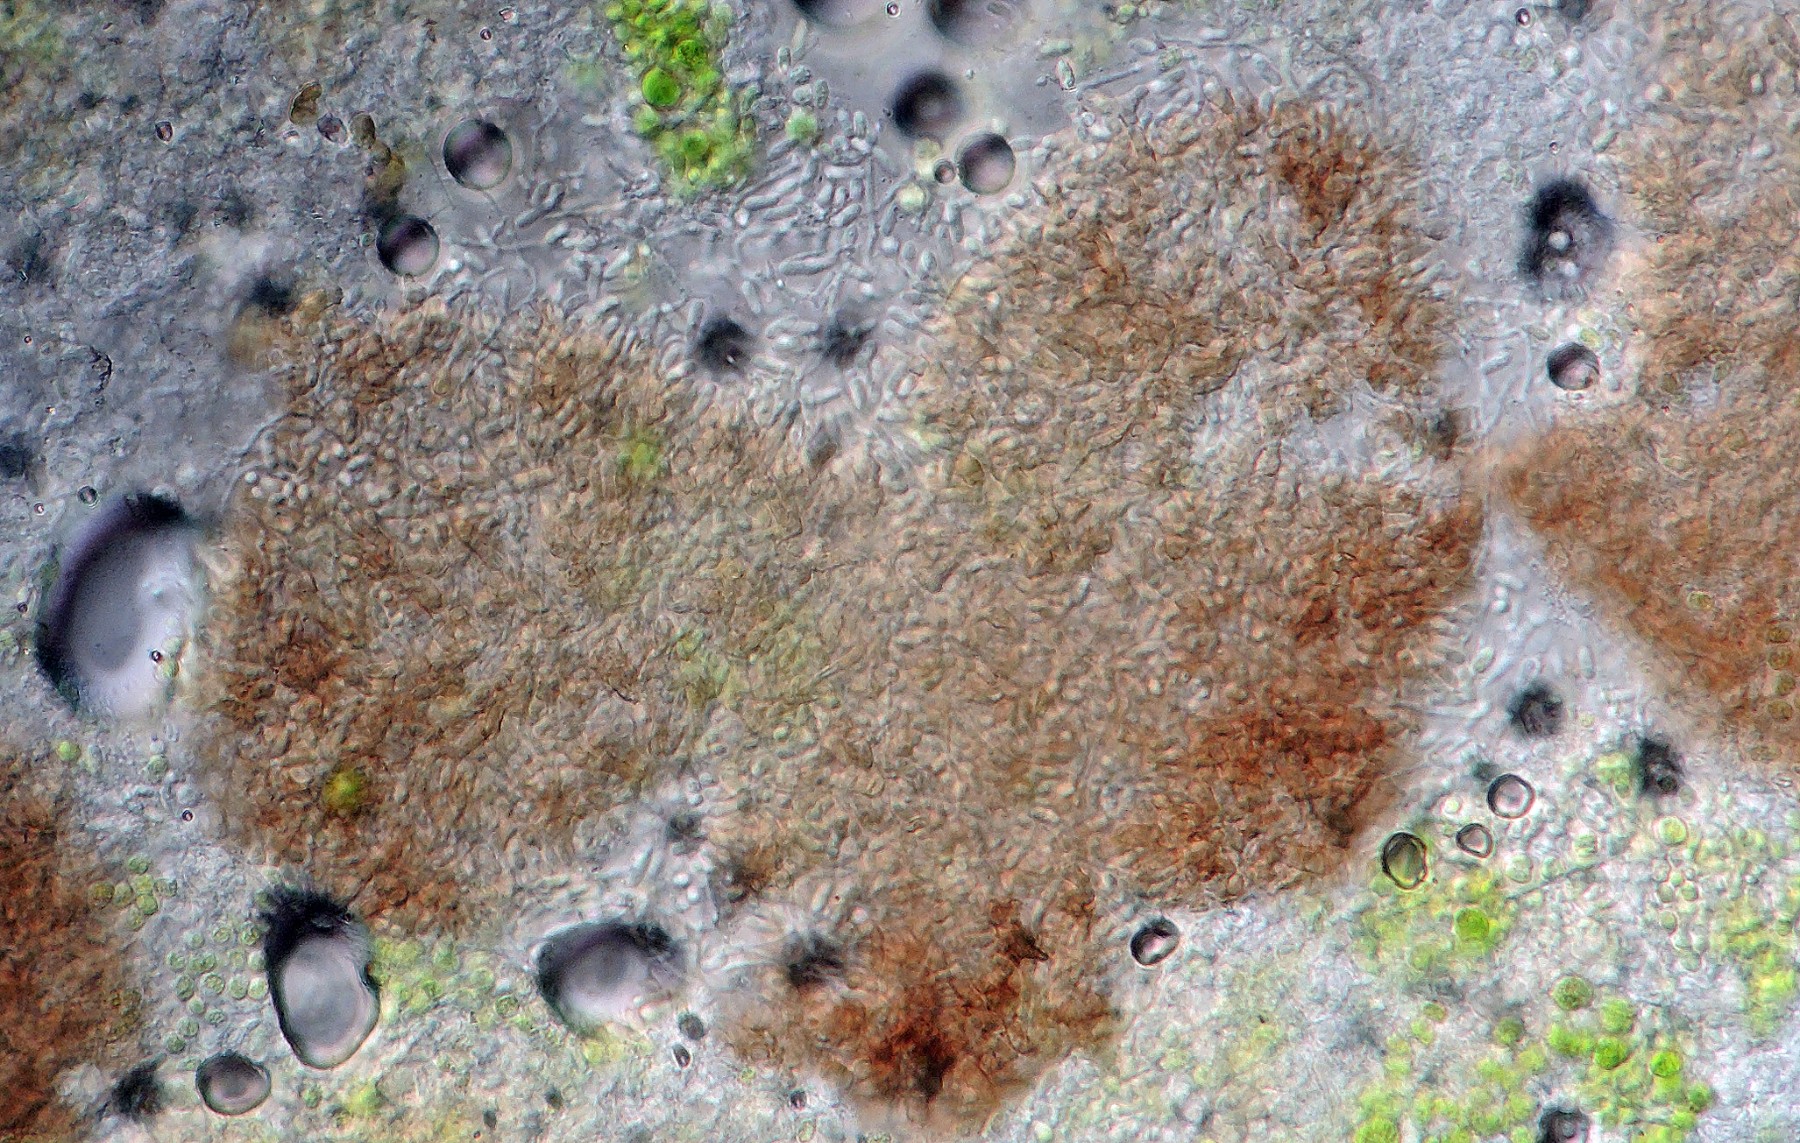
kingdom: Fungi
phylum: Ascomycota
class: Leotiomycetes
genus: Epicladonia
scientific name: Epicladonia sandstedei
